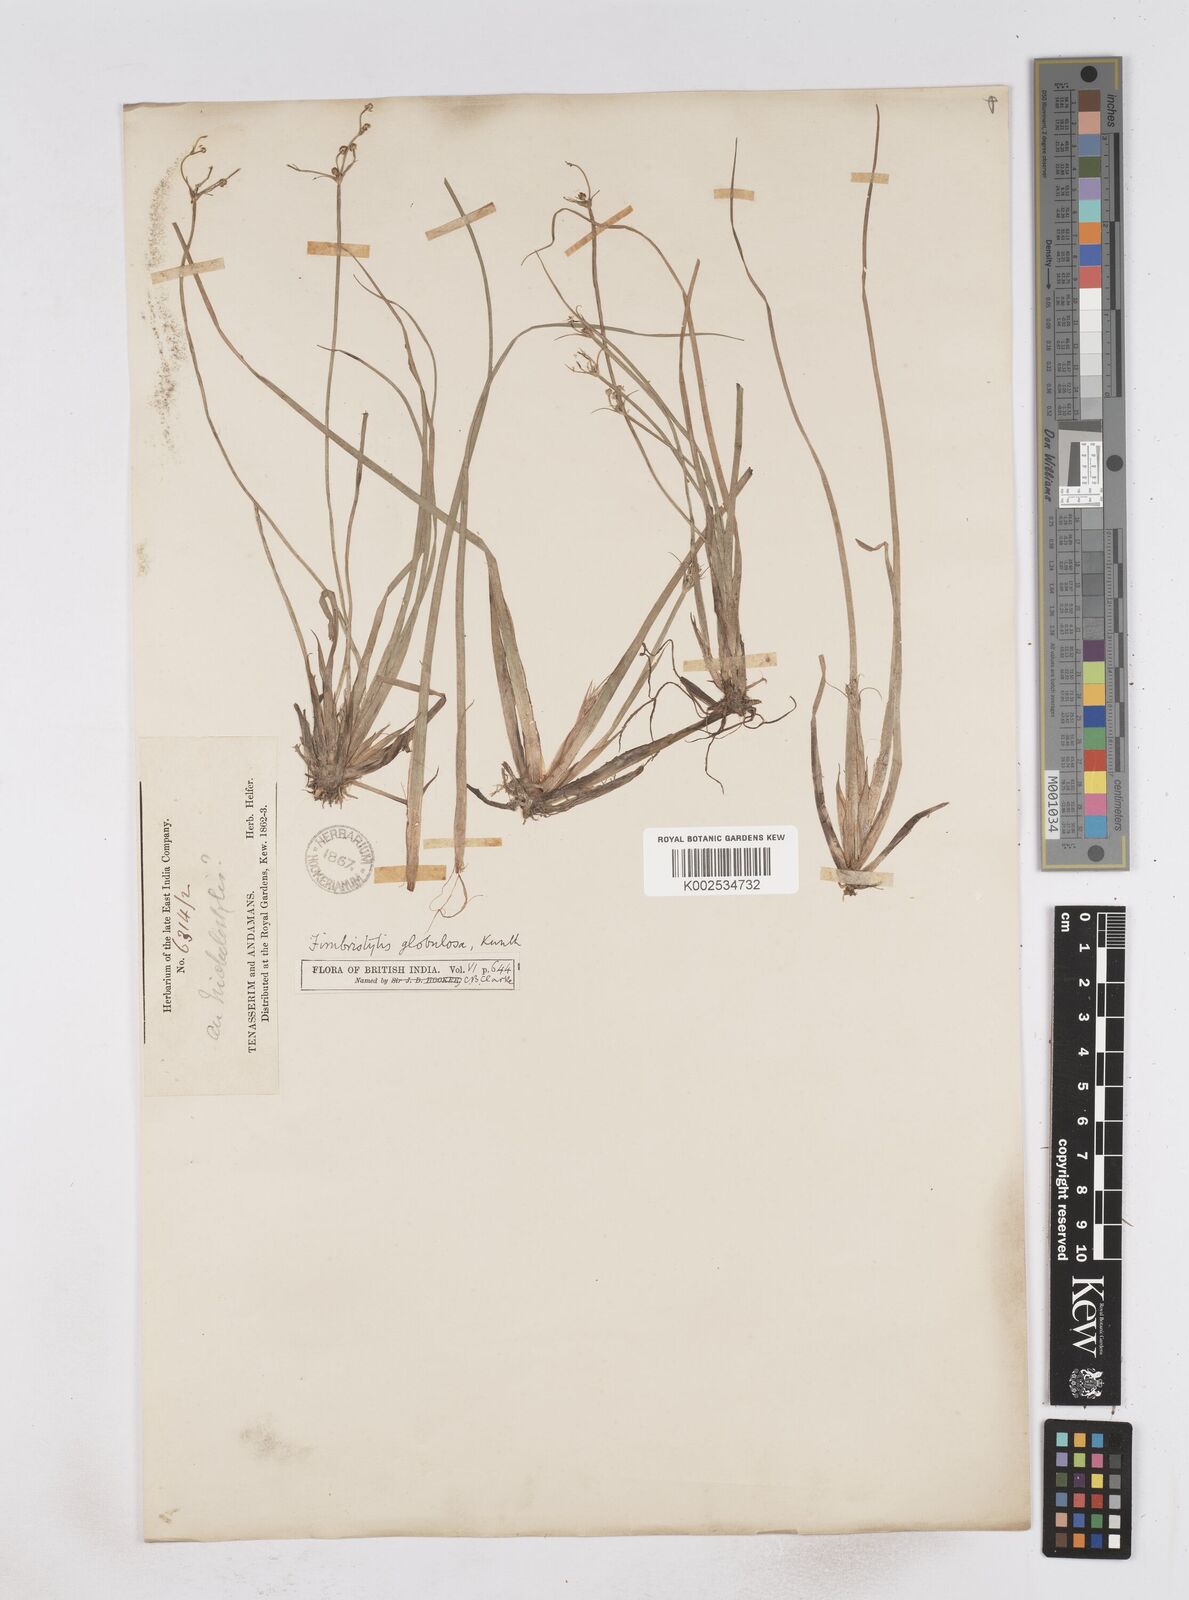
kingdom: Plantae
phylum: Tracheophyta
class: Liliopsida
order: Poales
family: Cyperaceae
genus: Fimbristylis
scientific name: Fimbristylis umbellaris
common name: Globular fimbristylis
